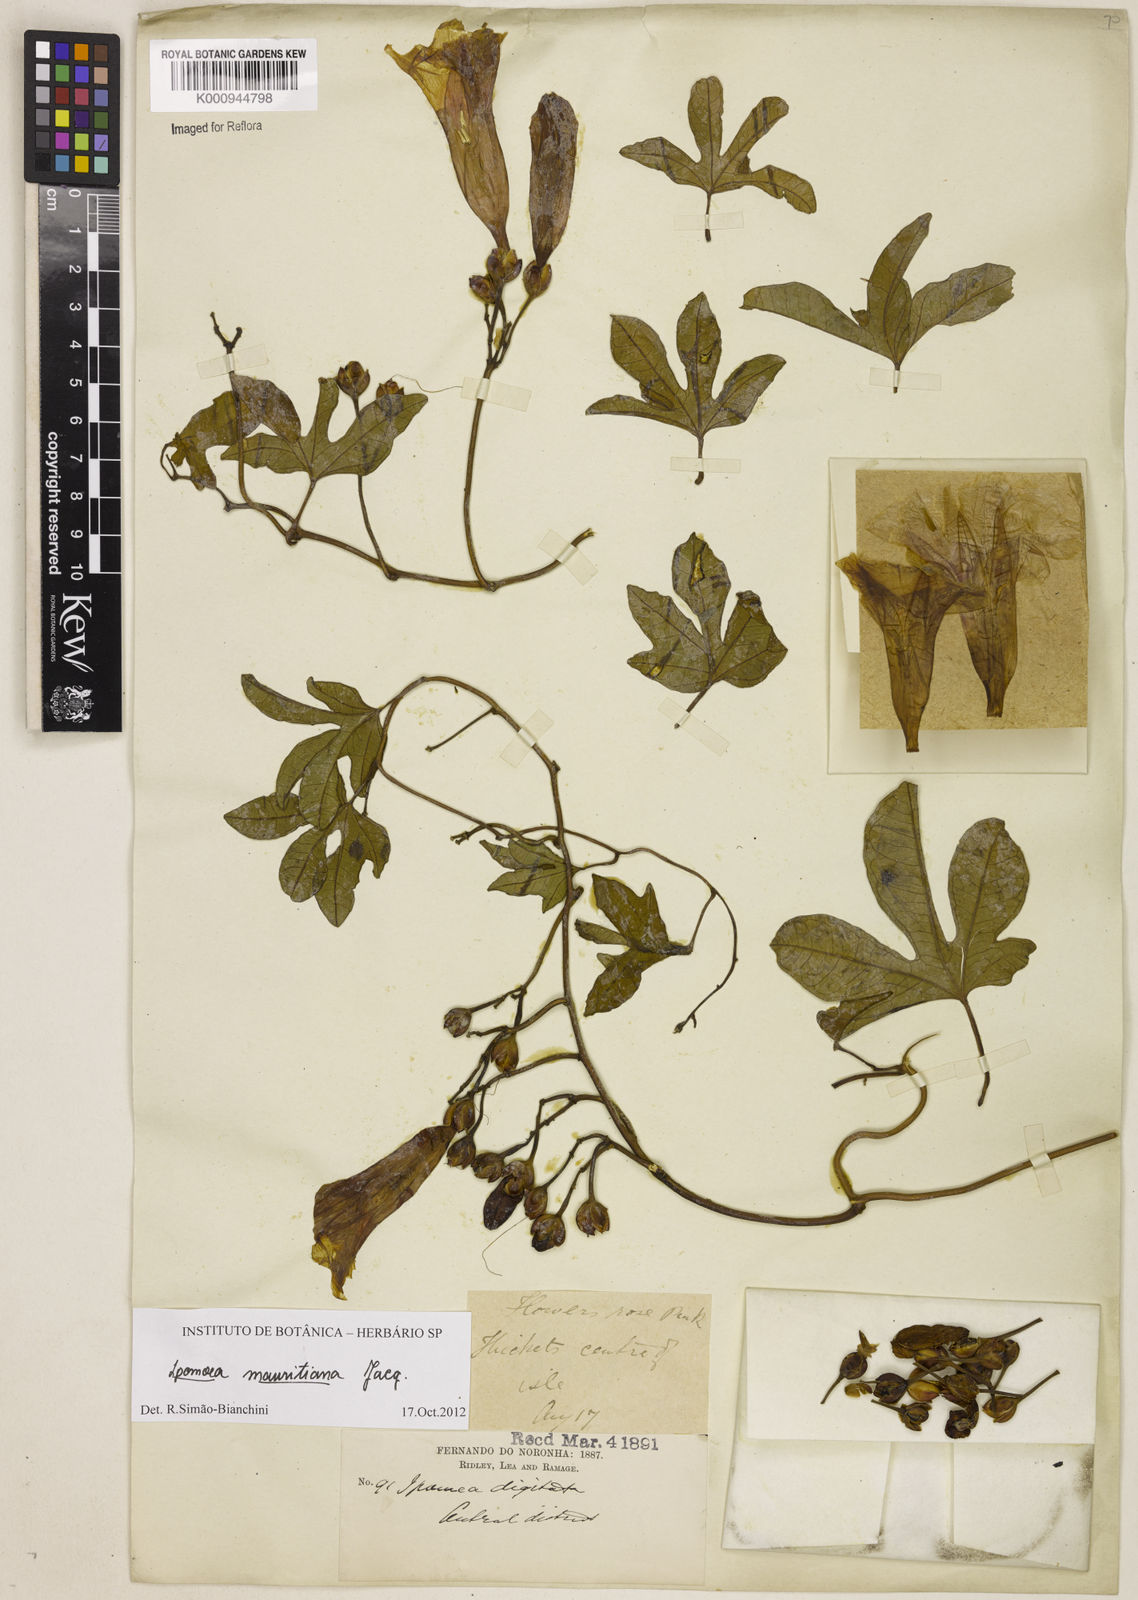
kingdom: Plantae
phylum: Tracheophyta
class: Magnoliopsida
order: Solanales
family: Convolvulaceae
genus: Ipomoea
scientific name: Ipomoea digitata
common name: Finger-leaf morning-glory
